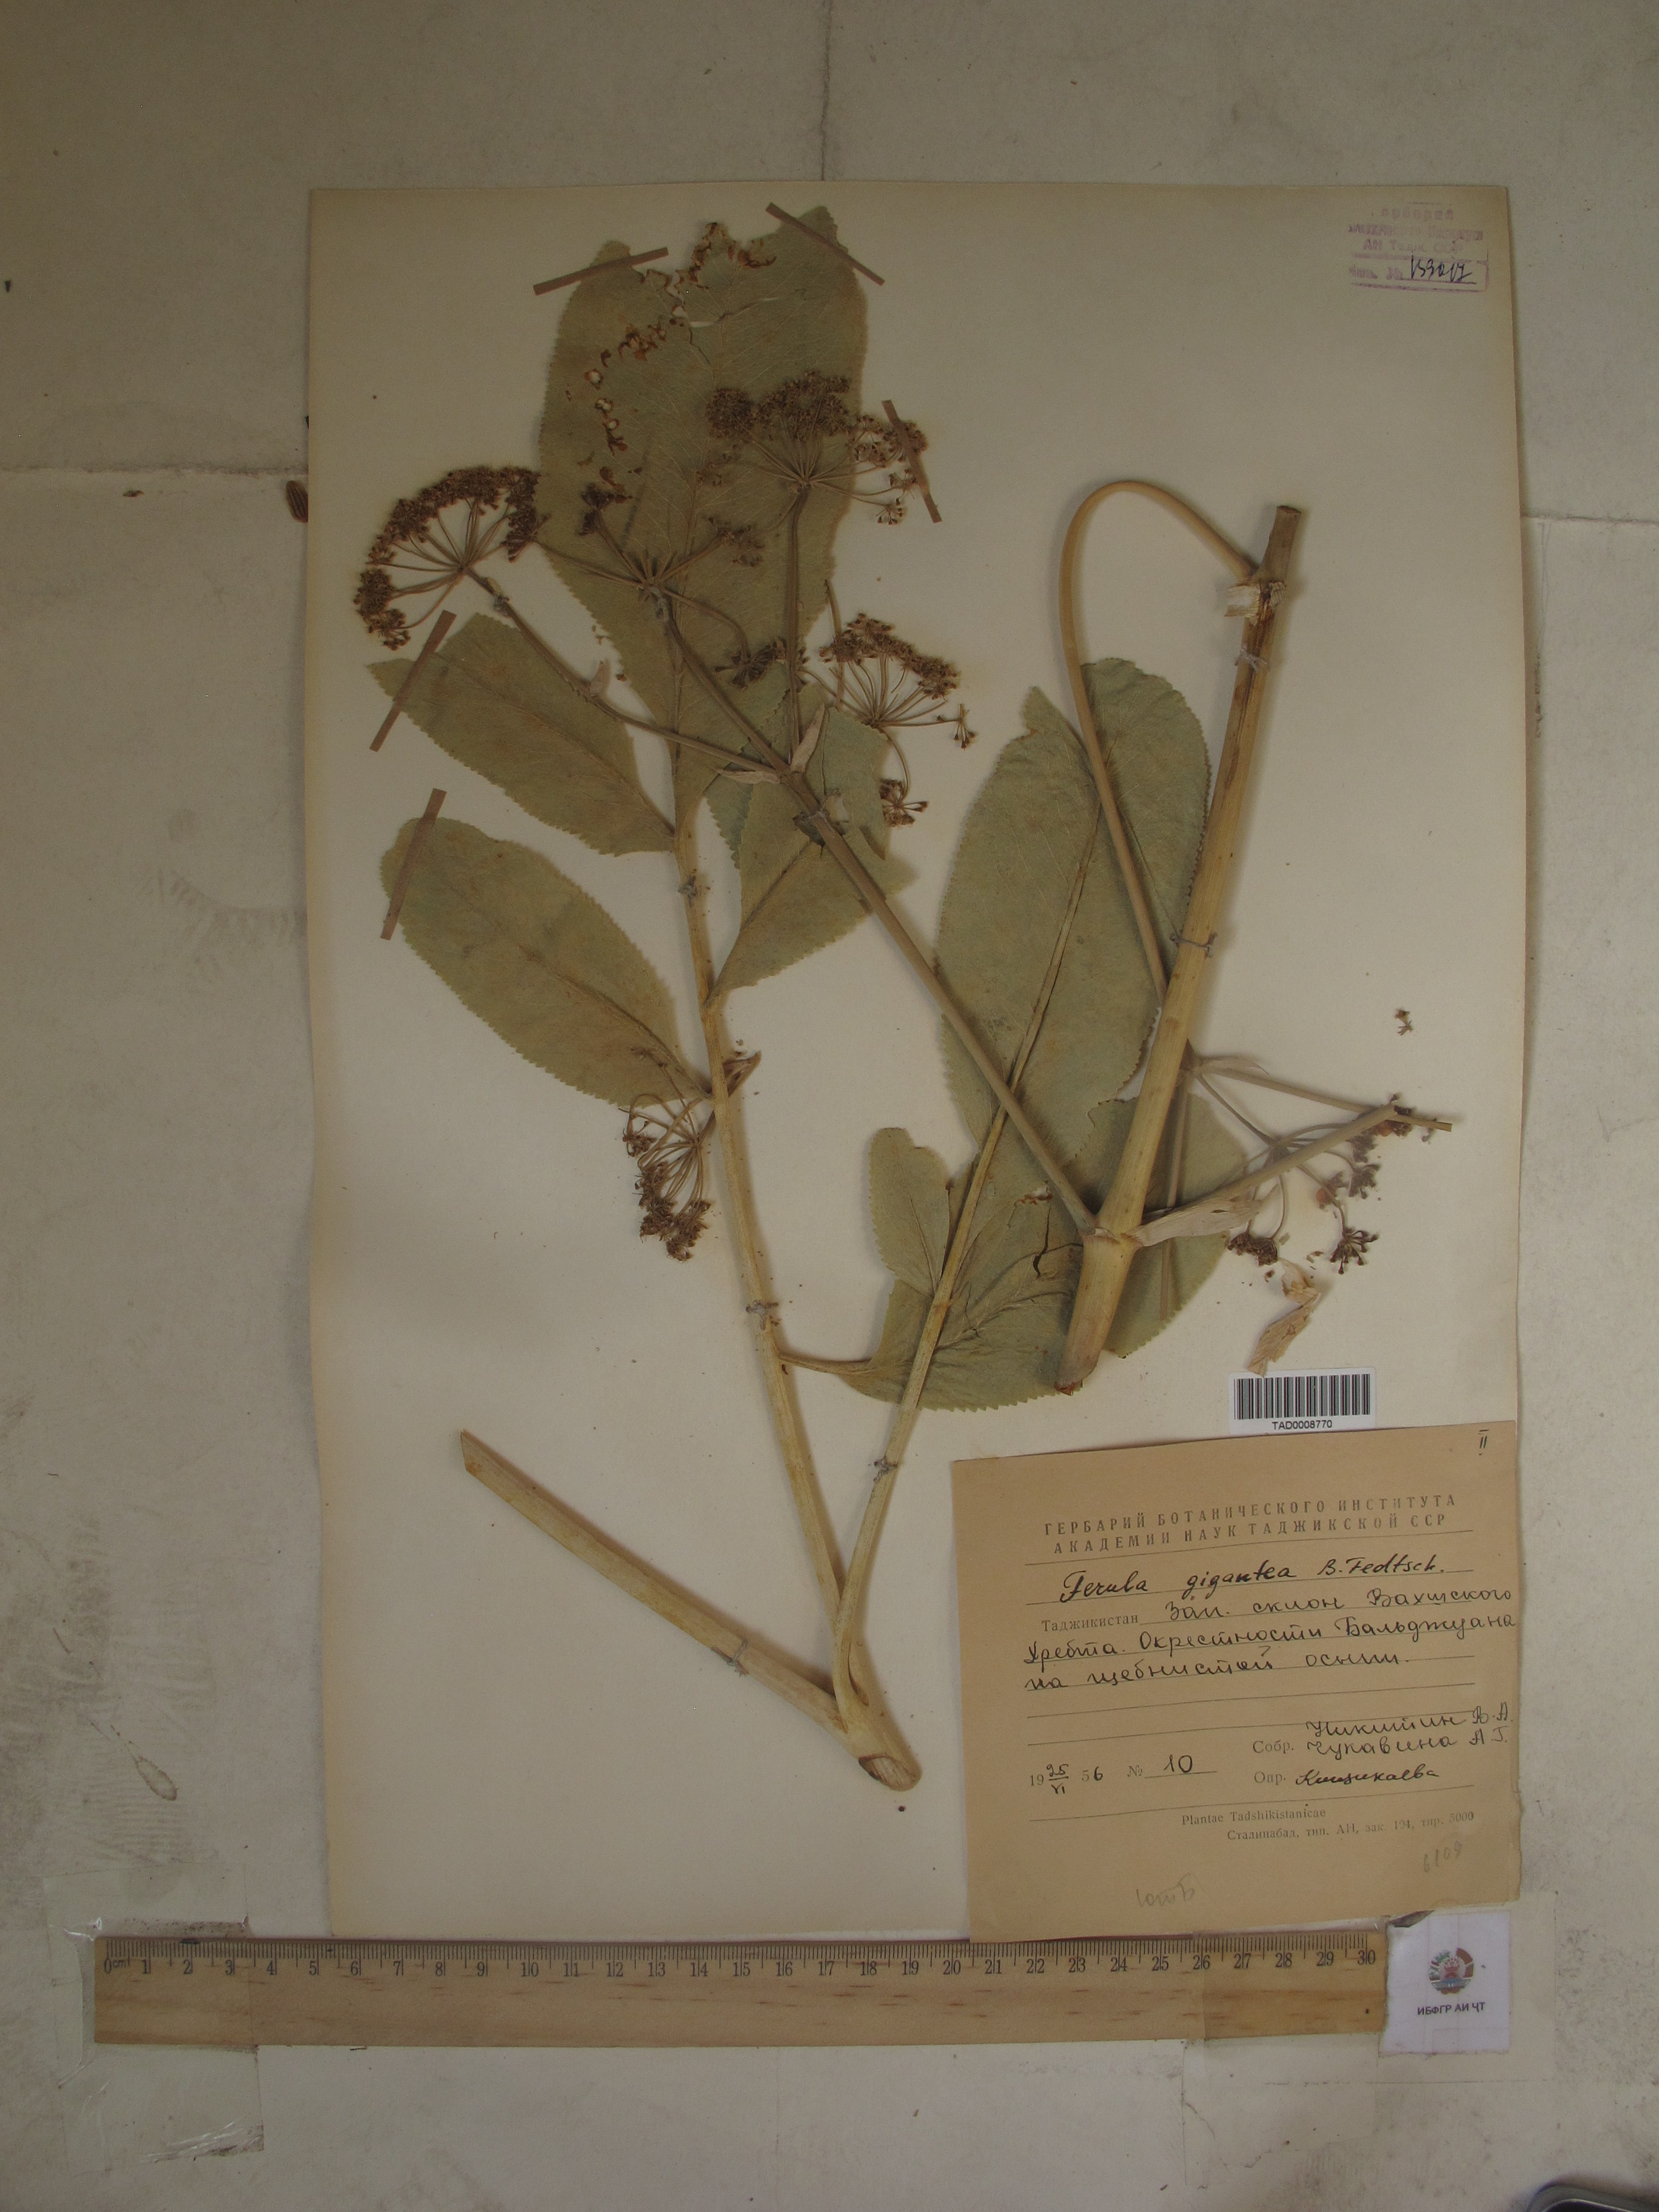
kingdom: Plantae
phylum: Tracheophyta
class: Magnoliopsida
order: Apiales
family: Apiaceae
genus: Ferula
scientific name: Ferula gigantea
